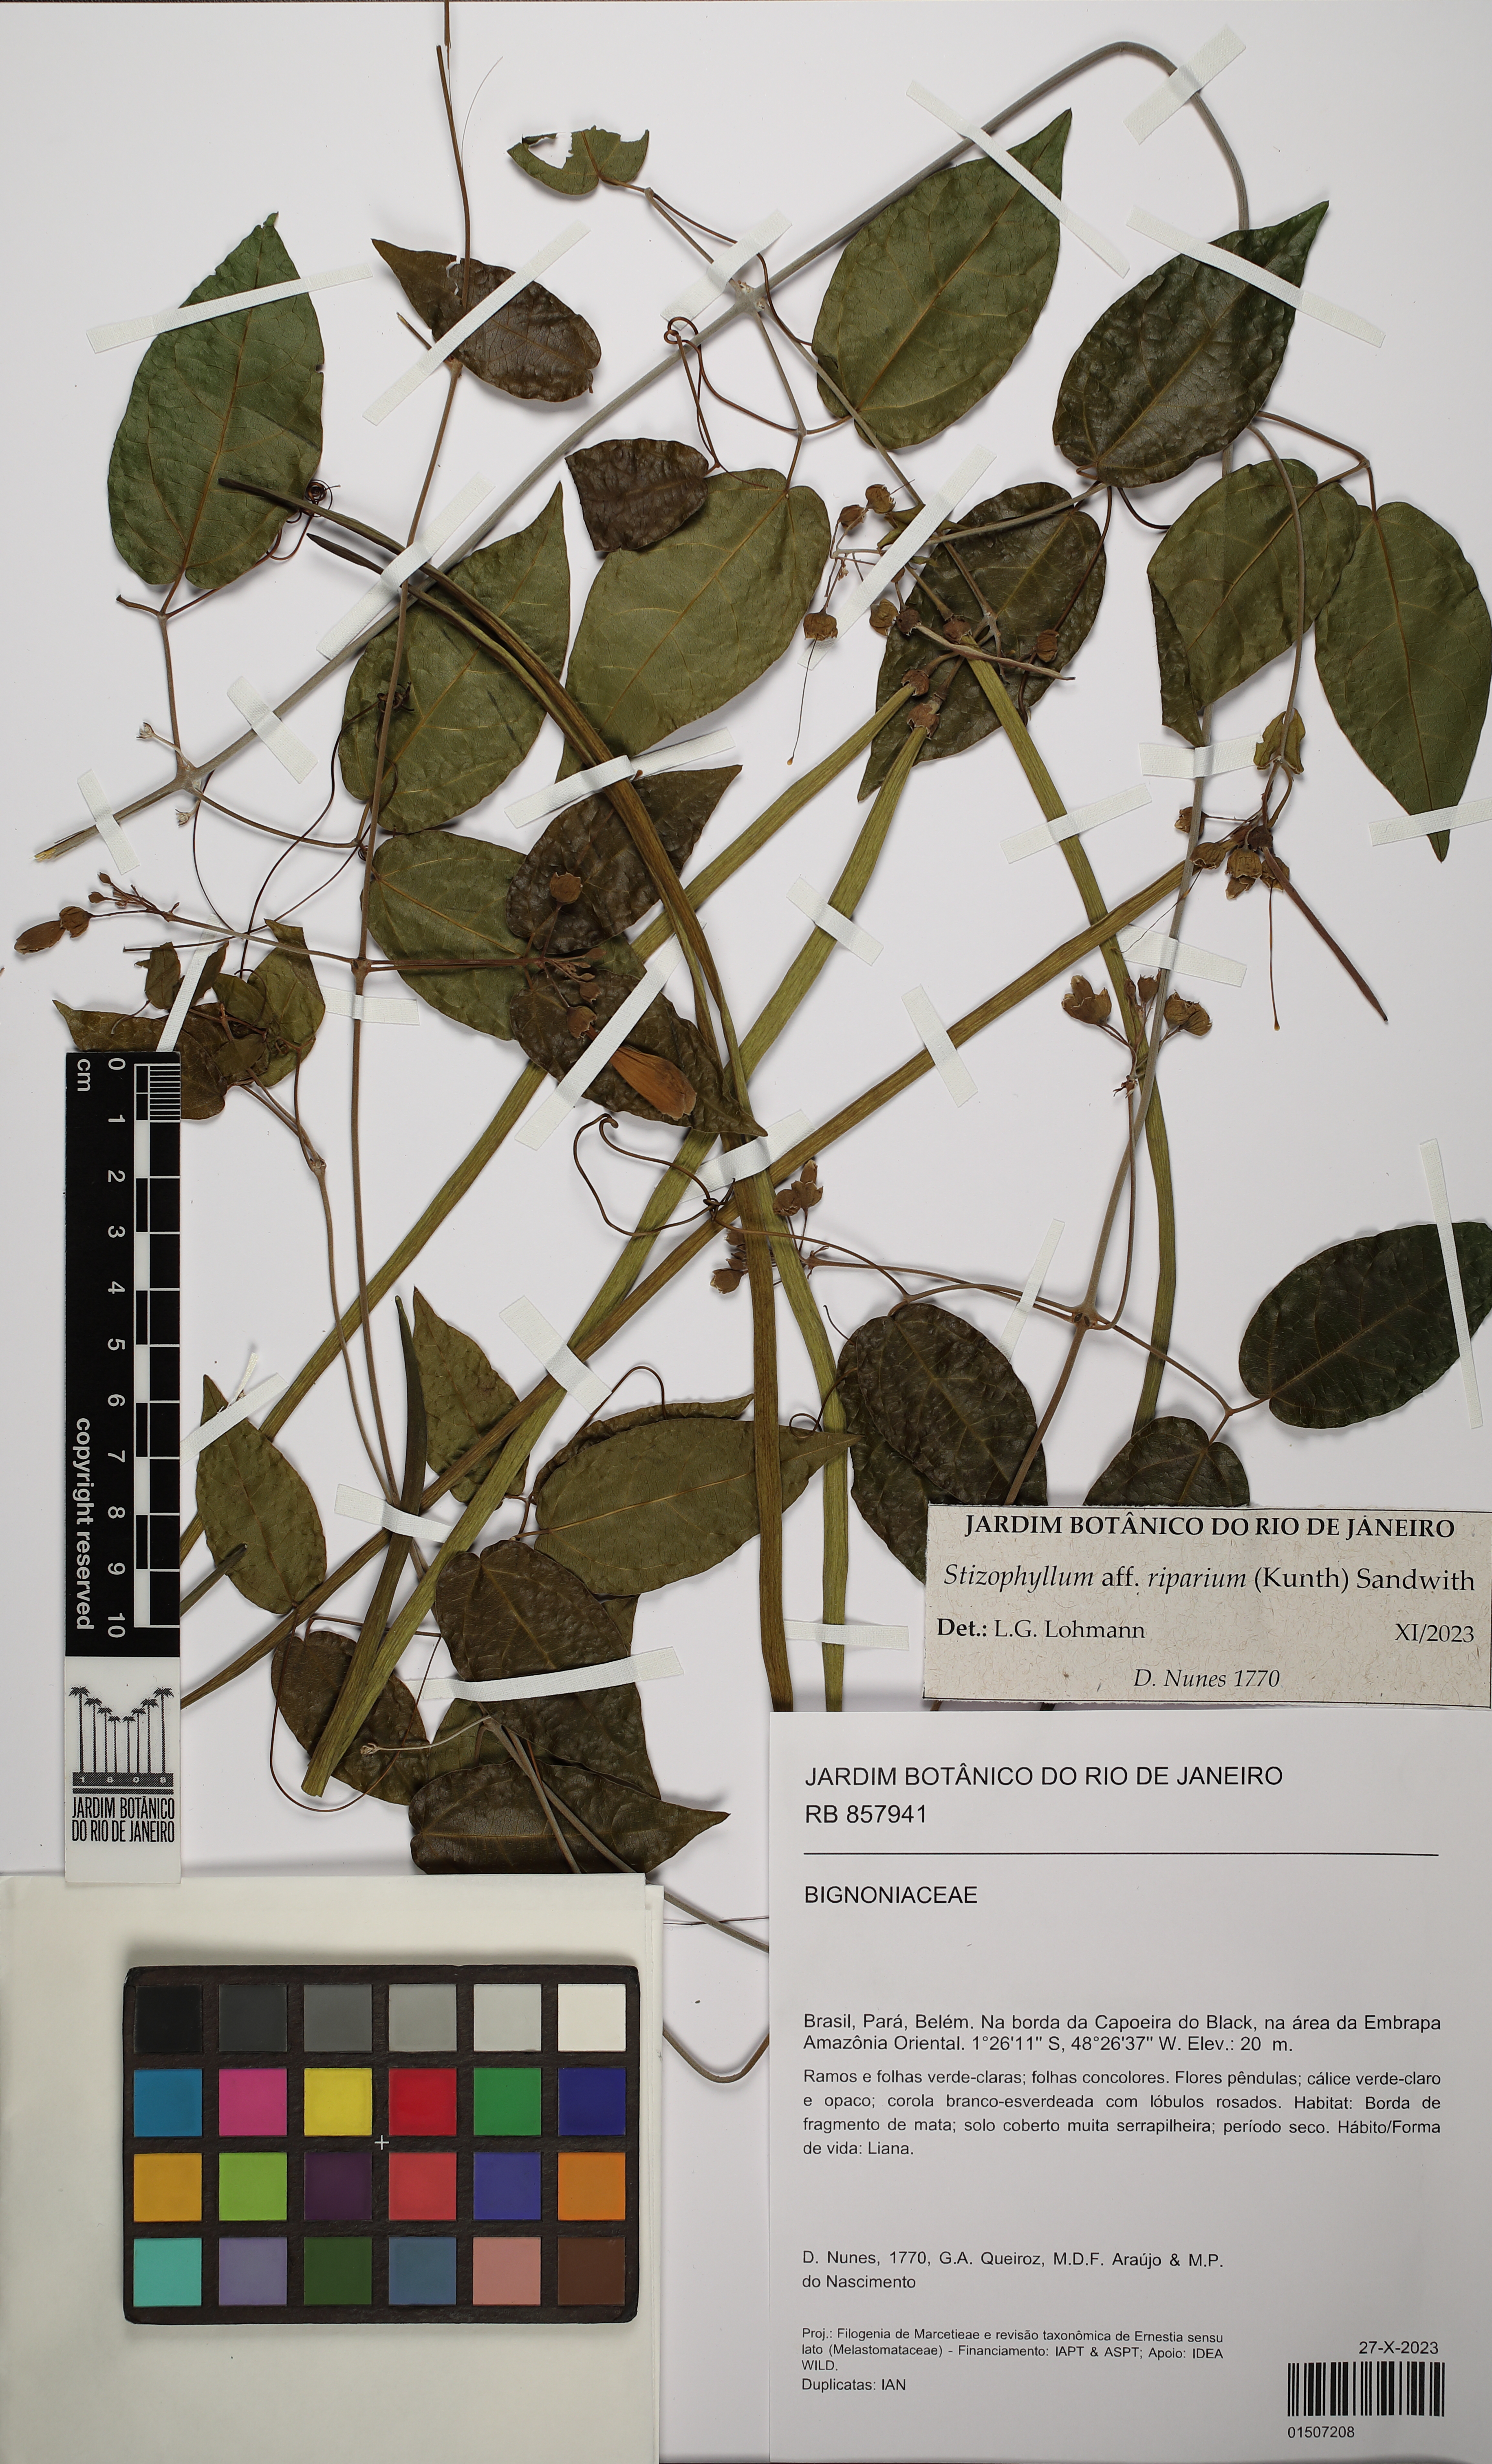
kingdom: Plantae
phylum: Tracheophyta
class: Magnoliopsida
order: Lamiales
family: Bignoniaceae
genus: Stizophyllum
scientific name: Stizophyllum riparium
